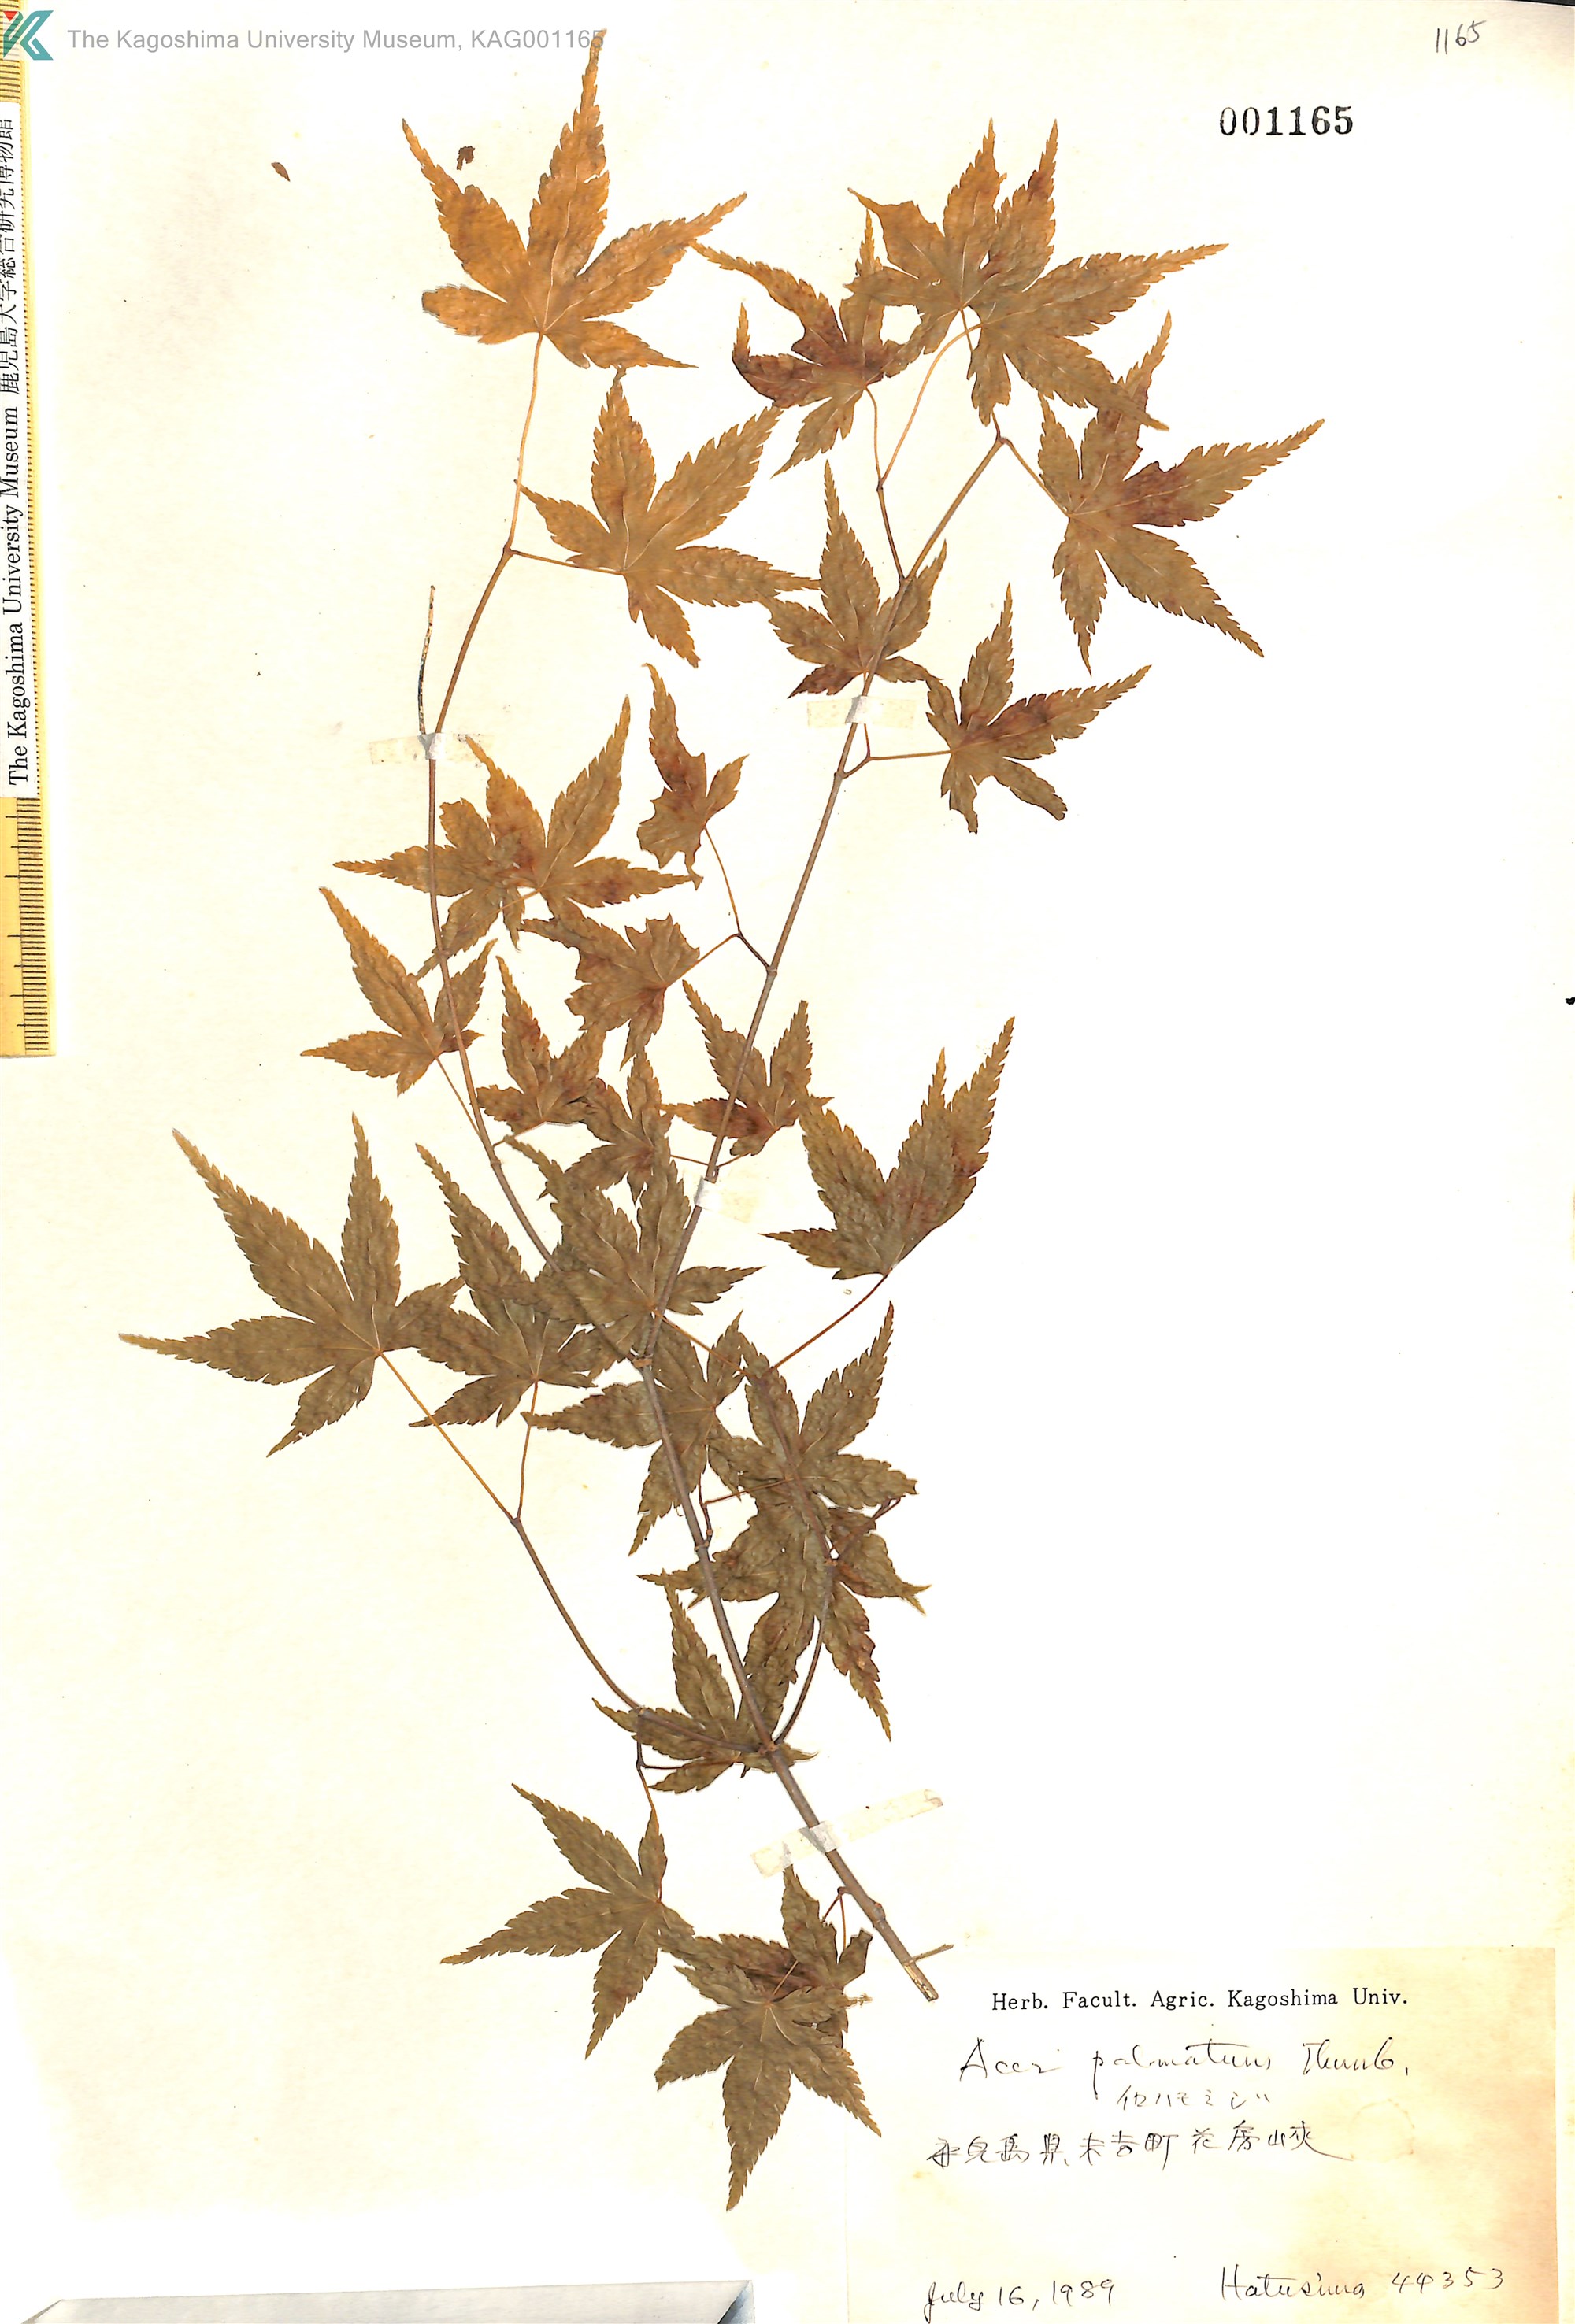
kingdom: Plantae
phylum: Tracheophyta
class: Magnoliopsida
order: Sapindales
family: Sapindaceae
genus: Acer
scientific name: Acer palmatum
